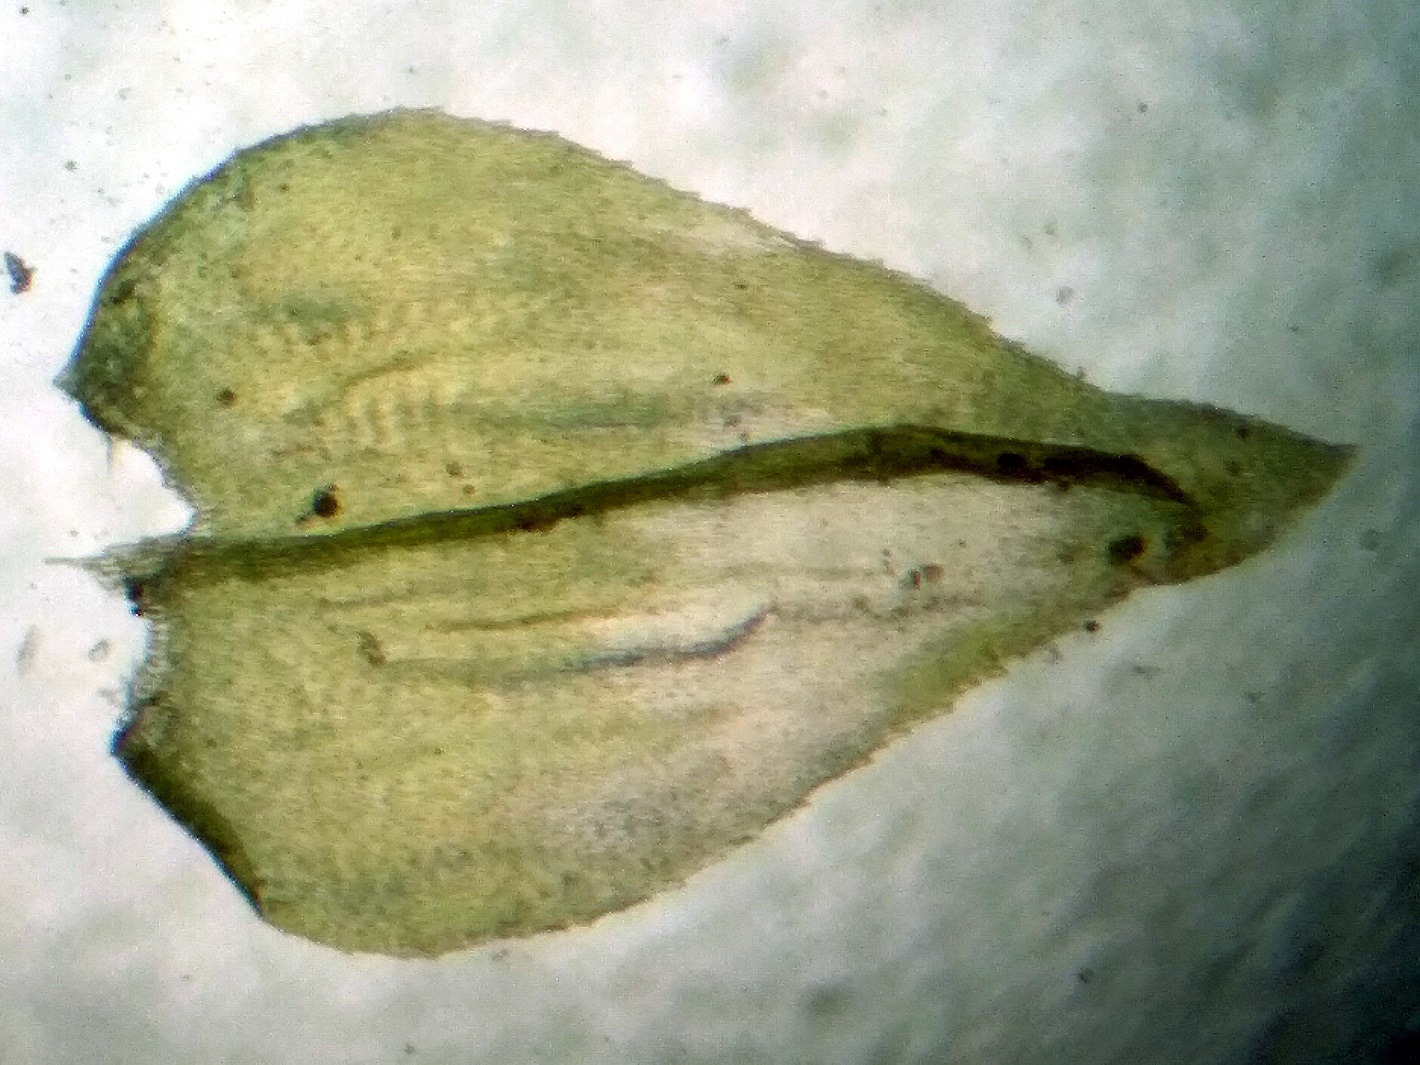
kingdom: Plantae
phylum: Bryophyta
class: Bryopsida
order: Hypnales
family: Brachytheciaceae
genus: Eurhynchium
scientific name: Eurhynchium angustirete
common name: Stor næbmos
